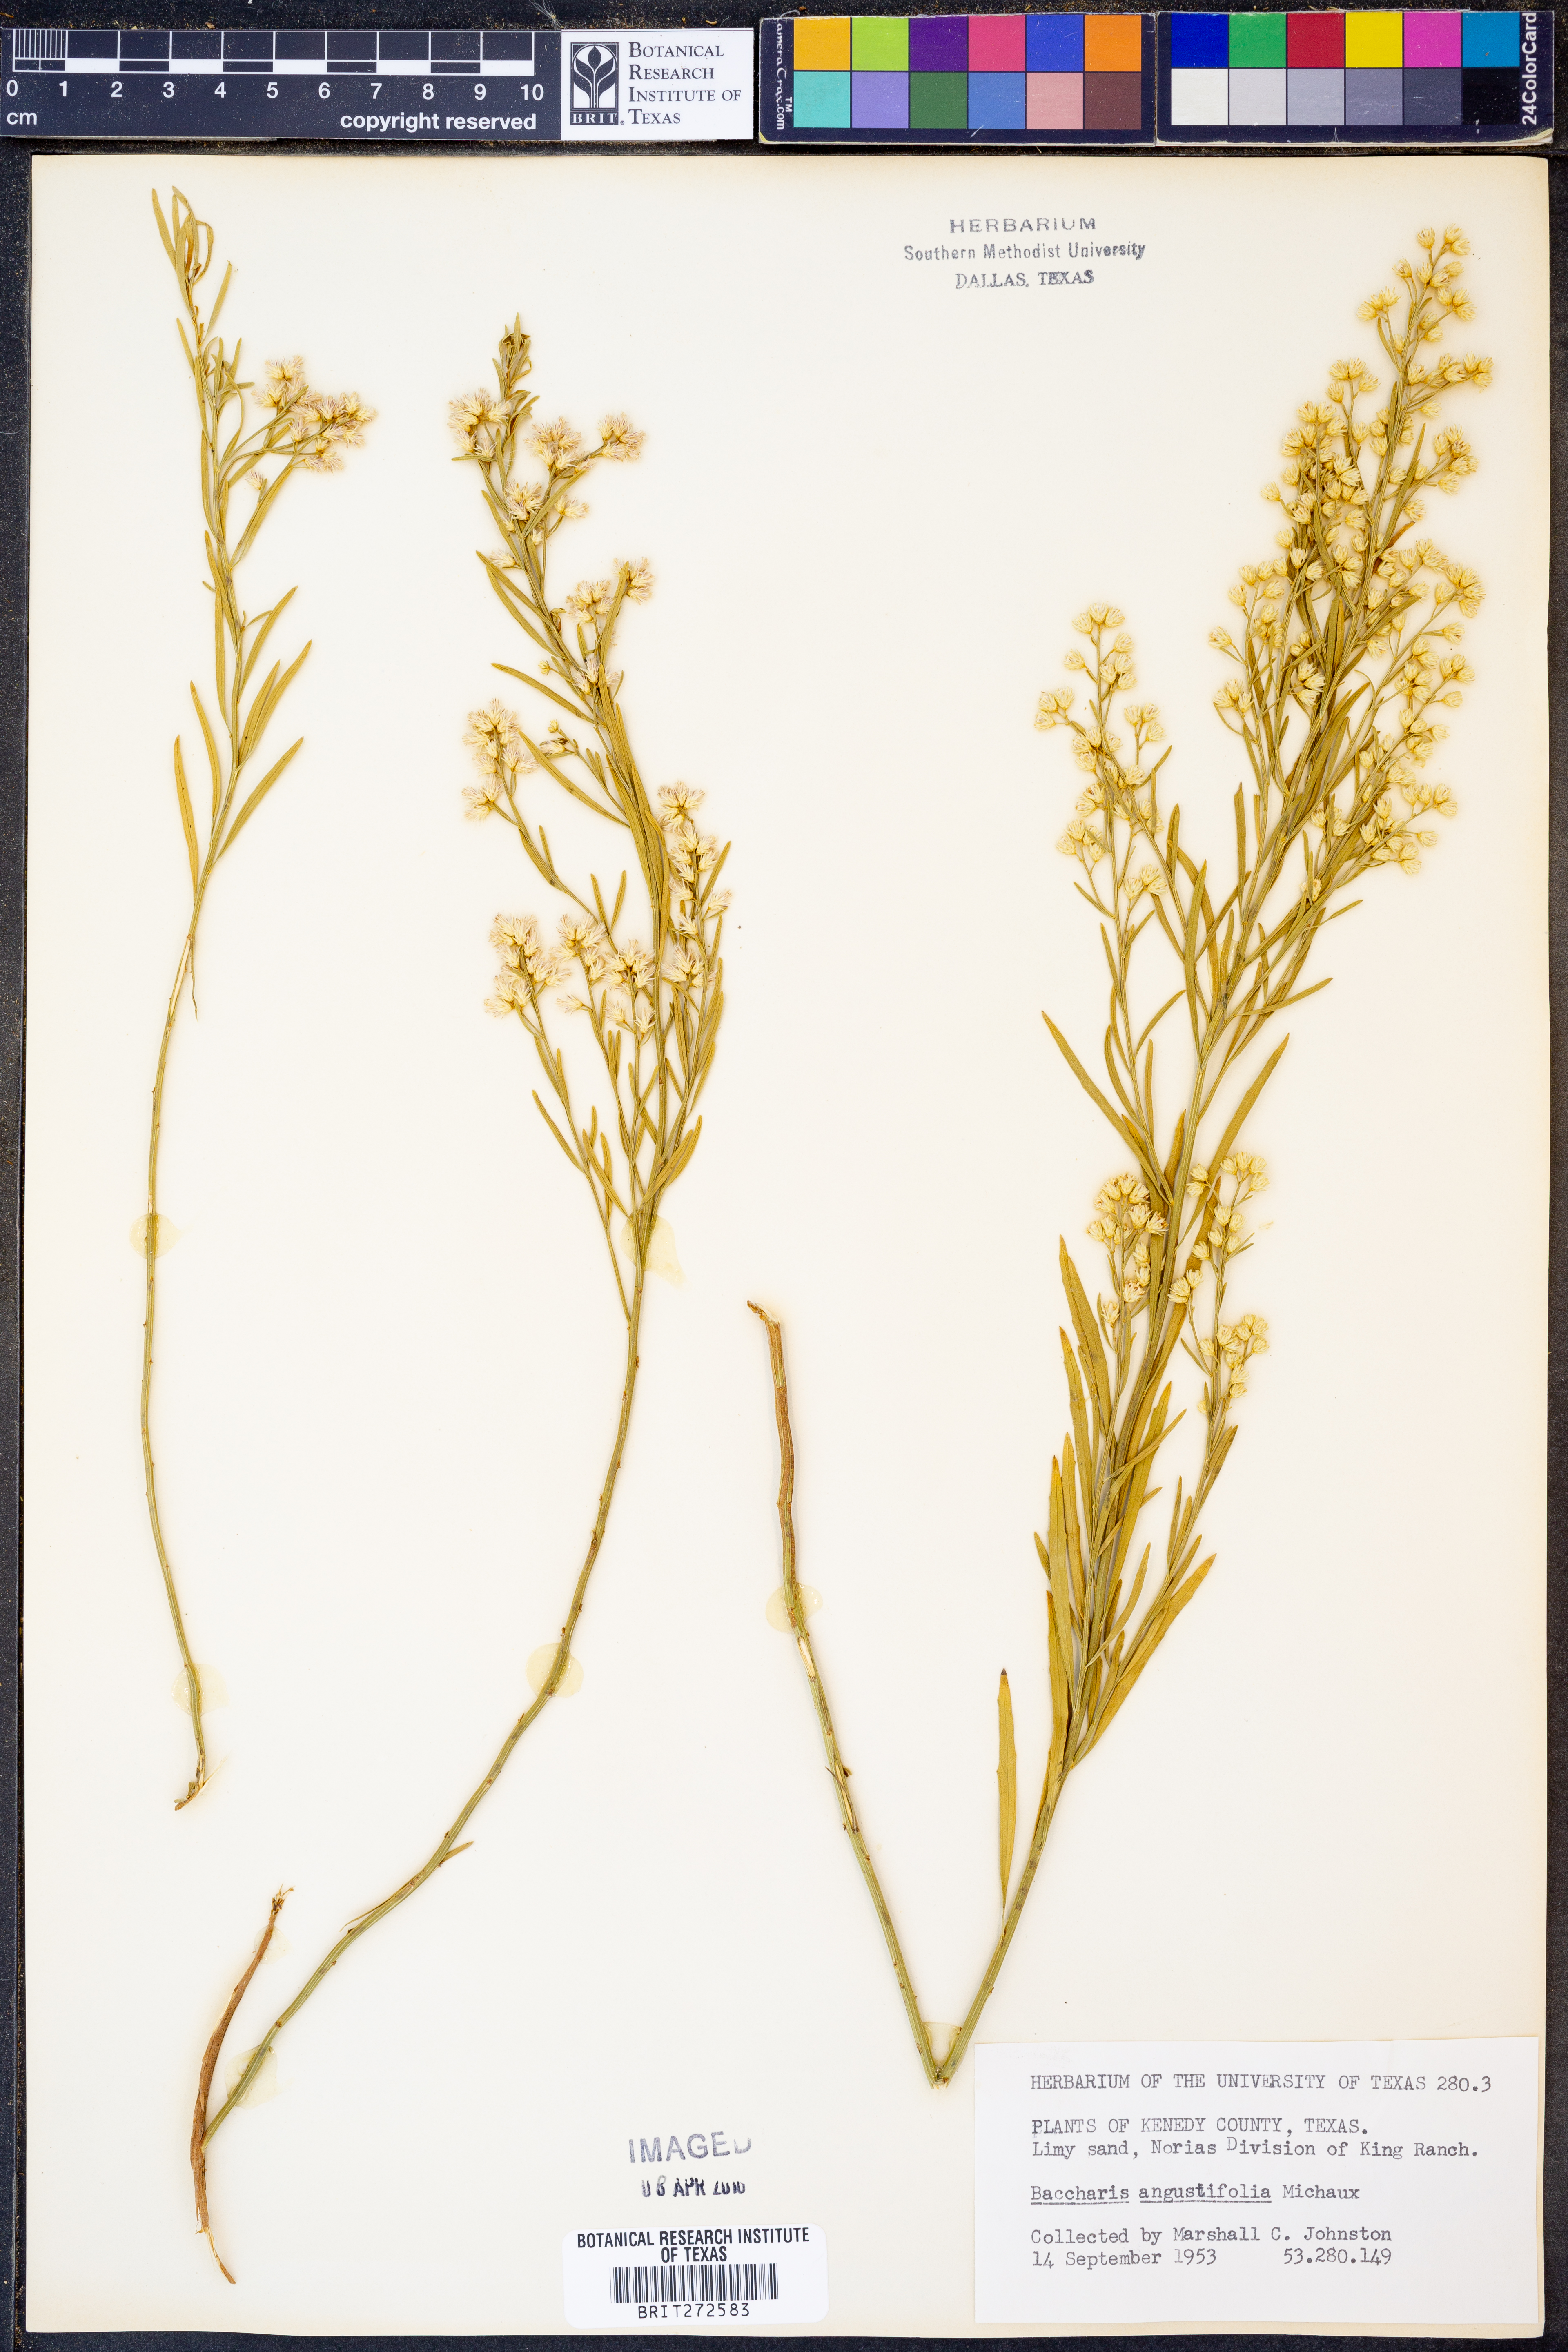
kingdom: Plantae
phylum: Tracheophyta
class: Magnoliopsida
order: Asterales
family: Asteraceae
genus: Baccharis
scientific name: Baccharis angustifolia
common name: Narrow-leaf baccharis
